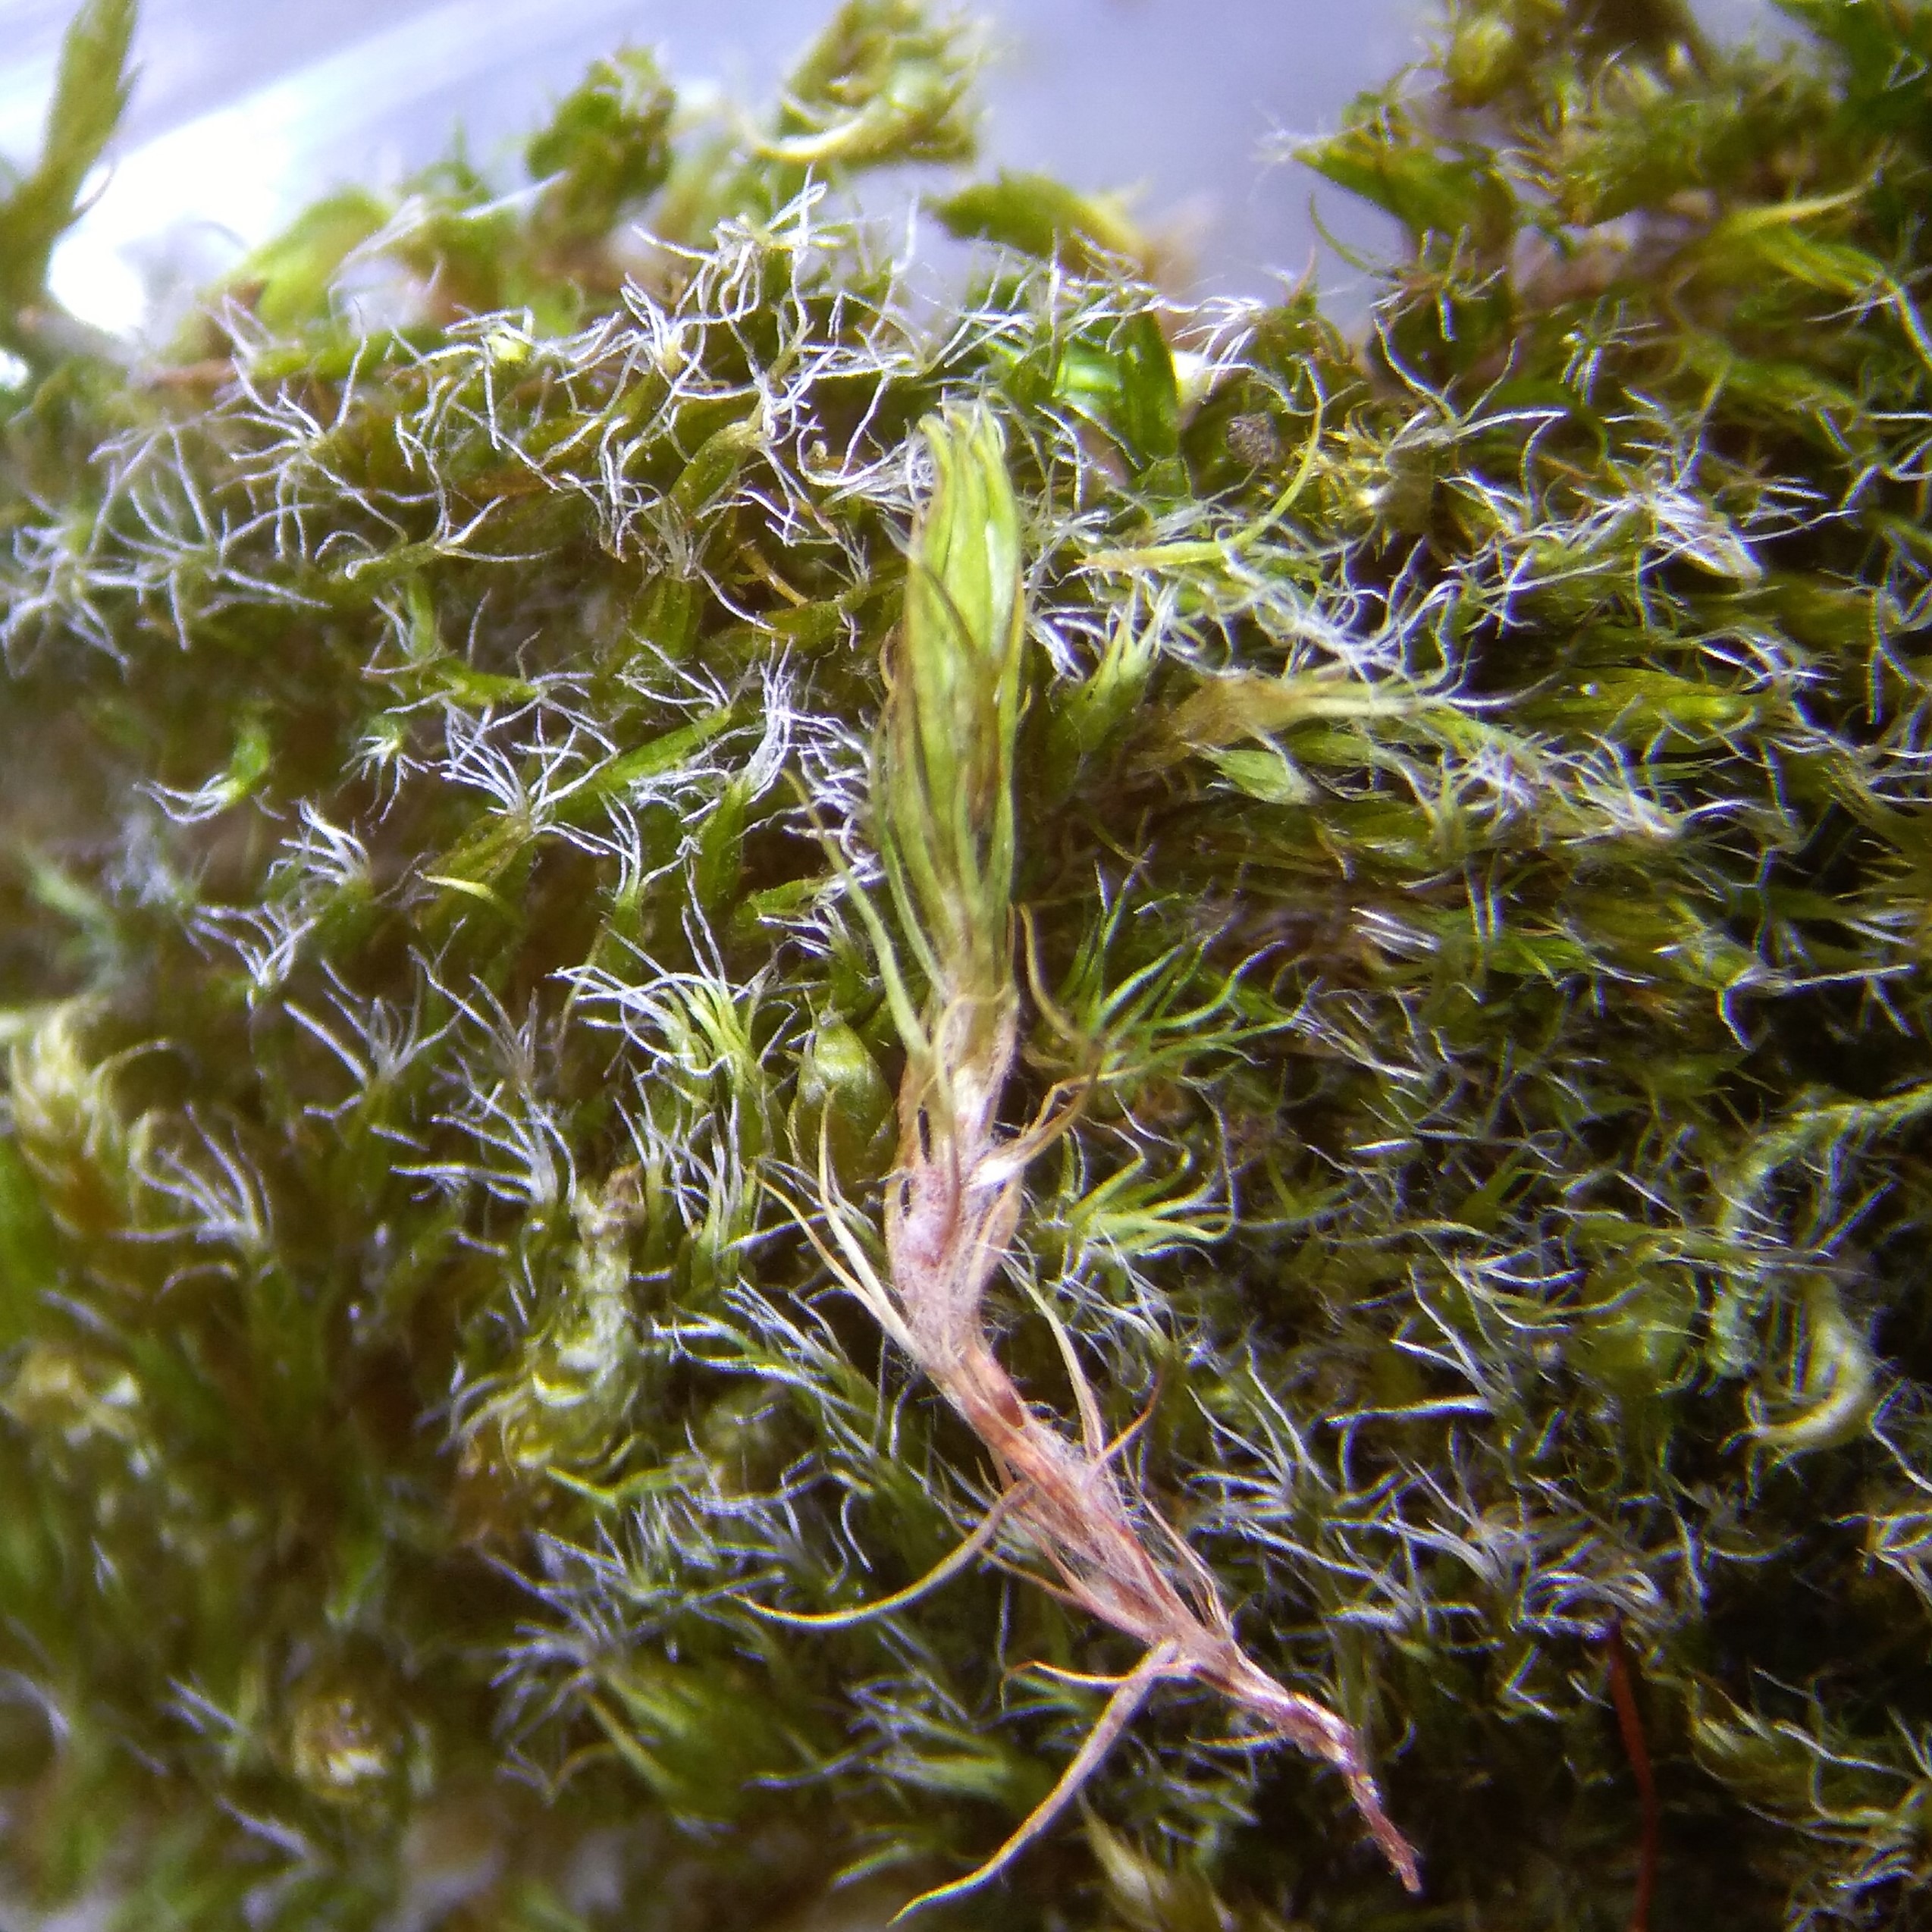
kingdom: Plantae
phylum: Bryophyta
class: Bryopsida
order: Dicranales
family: Leucobryaceae
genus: Campylopus
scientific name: Campylopus introflexus
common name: Stjerne-bredribbe
